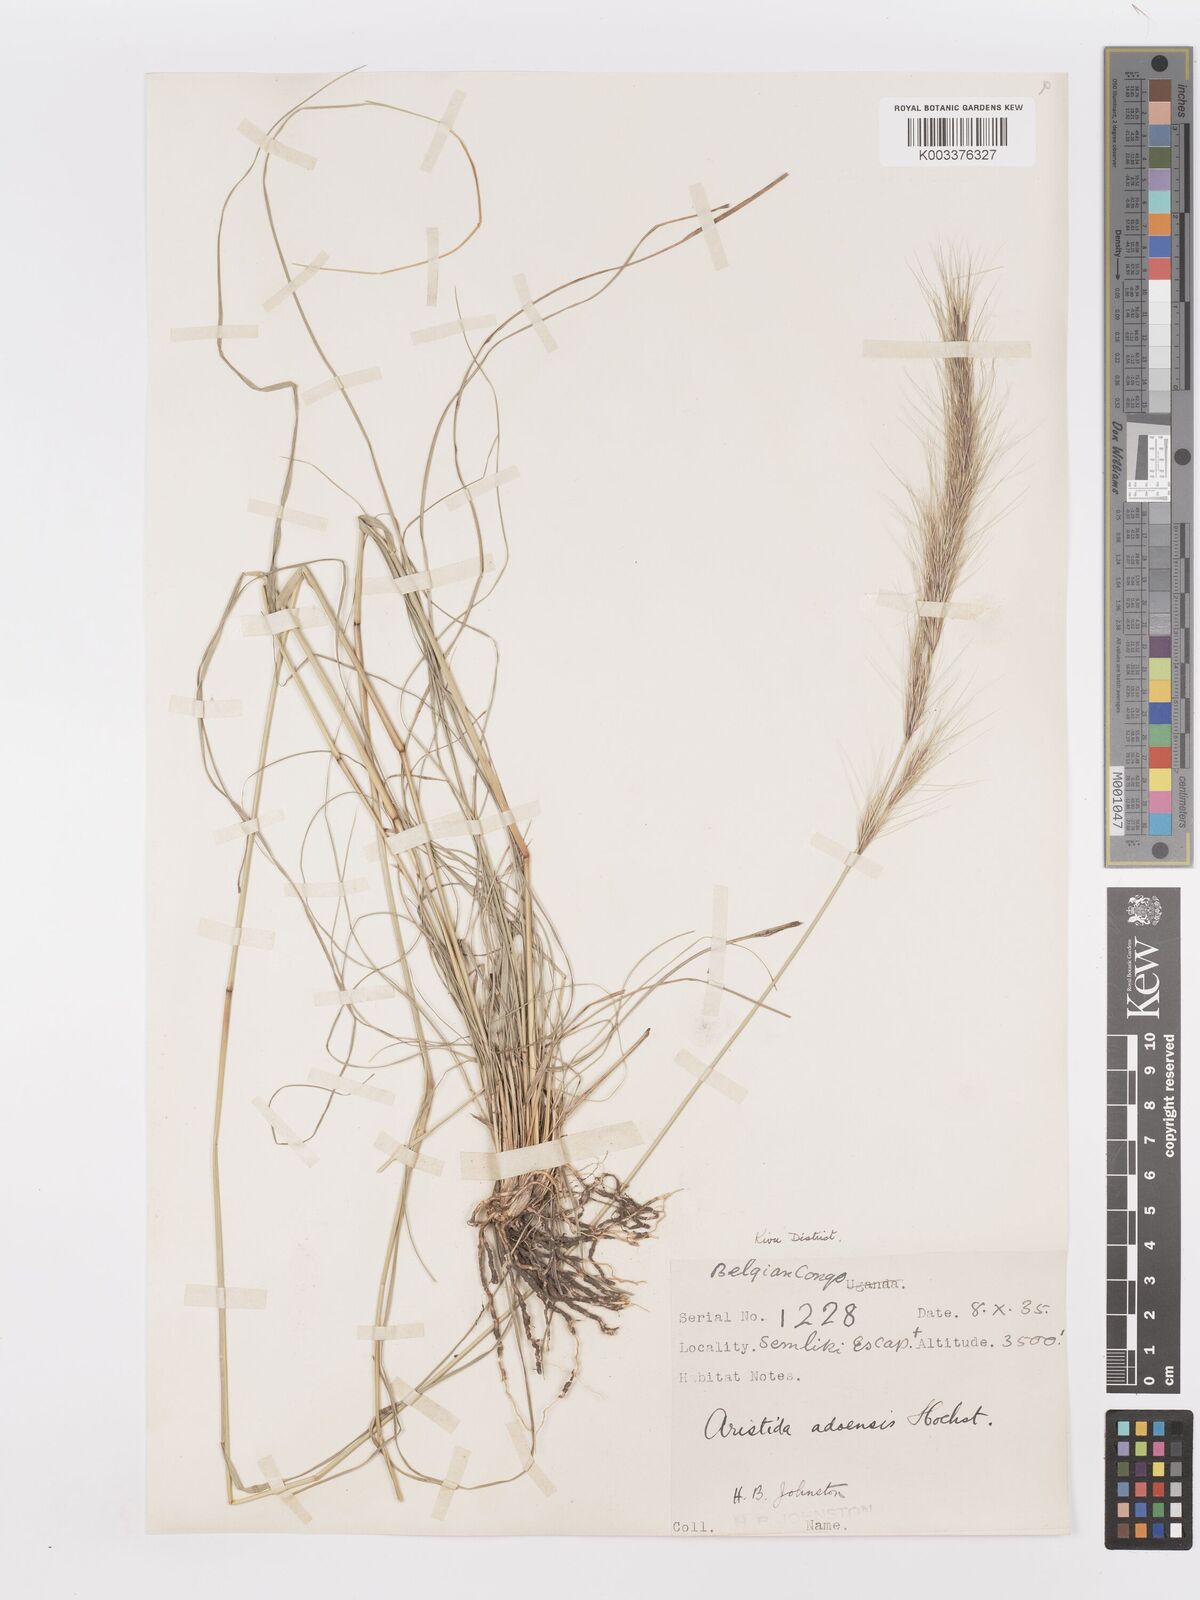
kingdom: Plantae
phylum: Tracheophyta
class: Liliopsida
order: Poales
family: Poaceae
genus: Aristida
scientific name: Aristida adoensis
